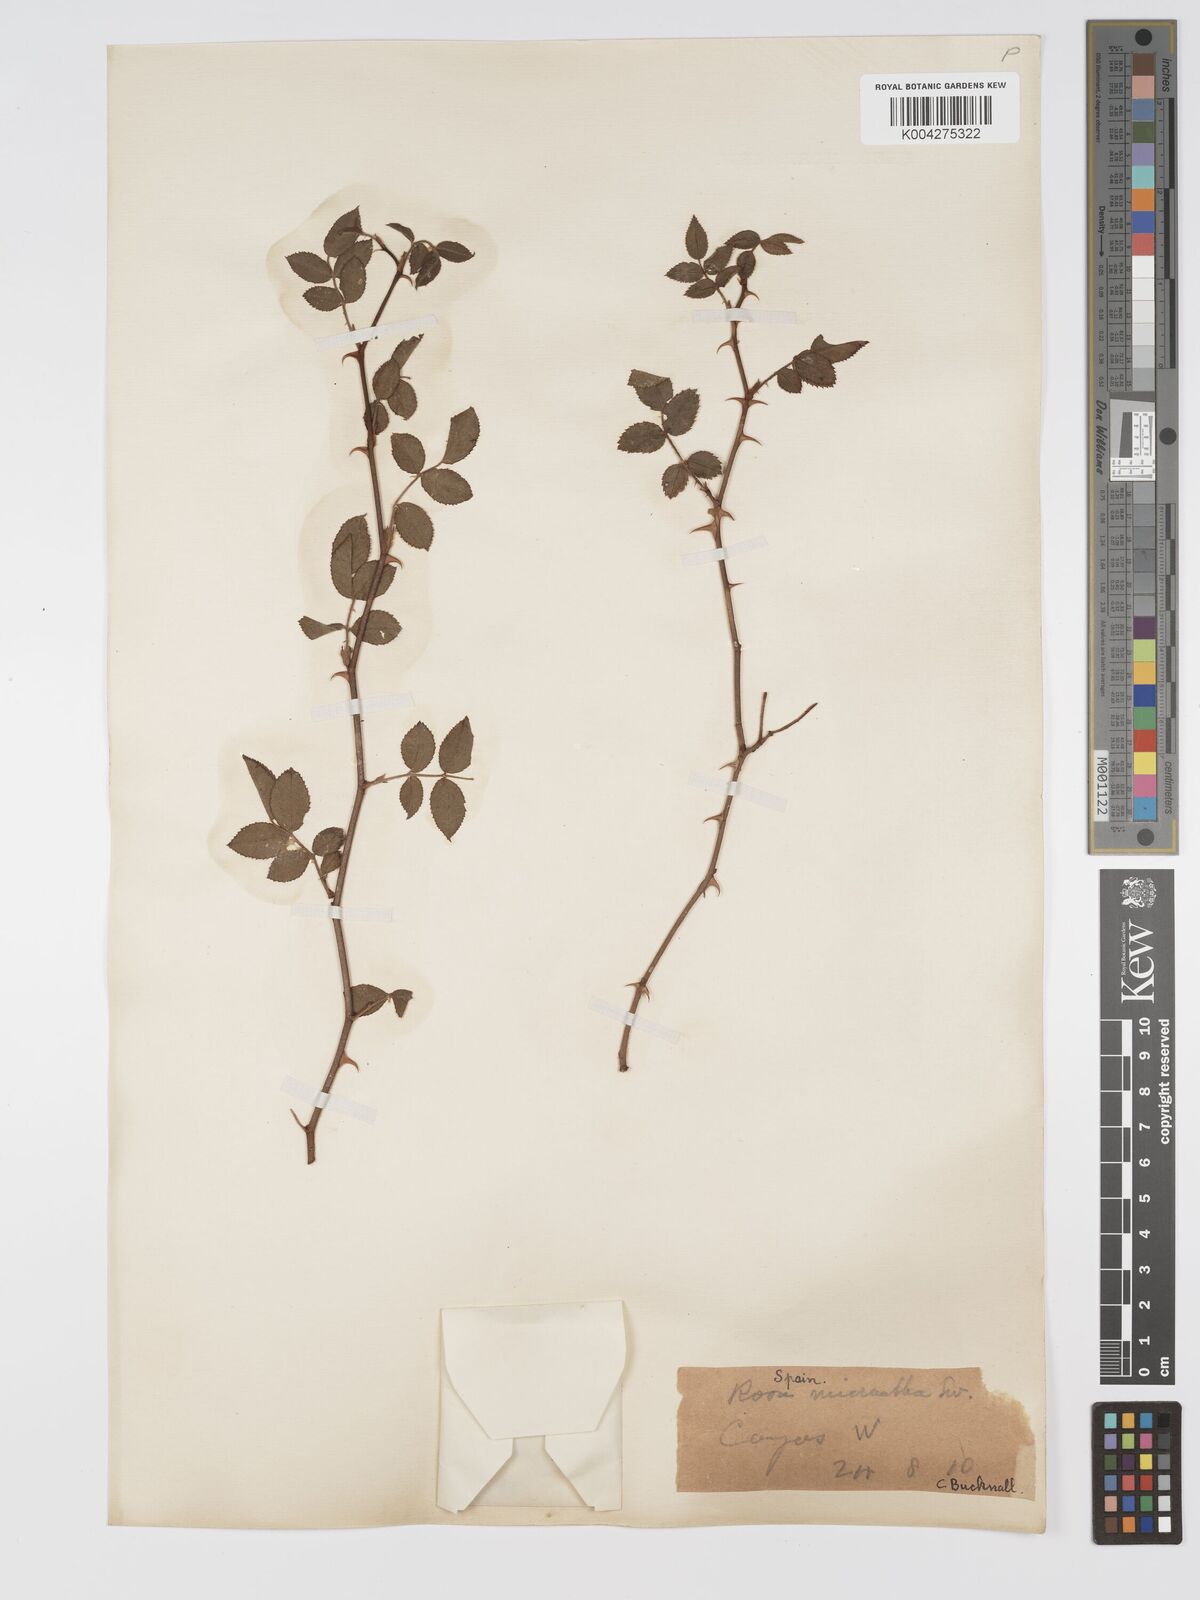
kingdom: Plantae
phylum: Tracheophyta
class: Magnoliopsida
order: Rosales
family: Rosaceae
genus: Rosa
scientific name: Rosa
